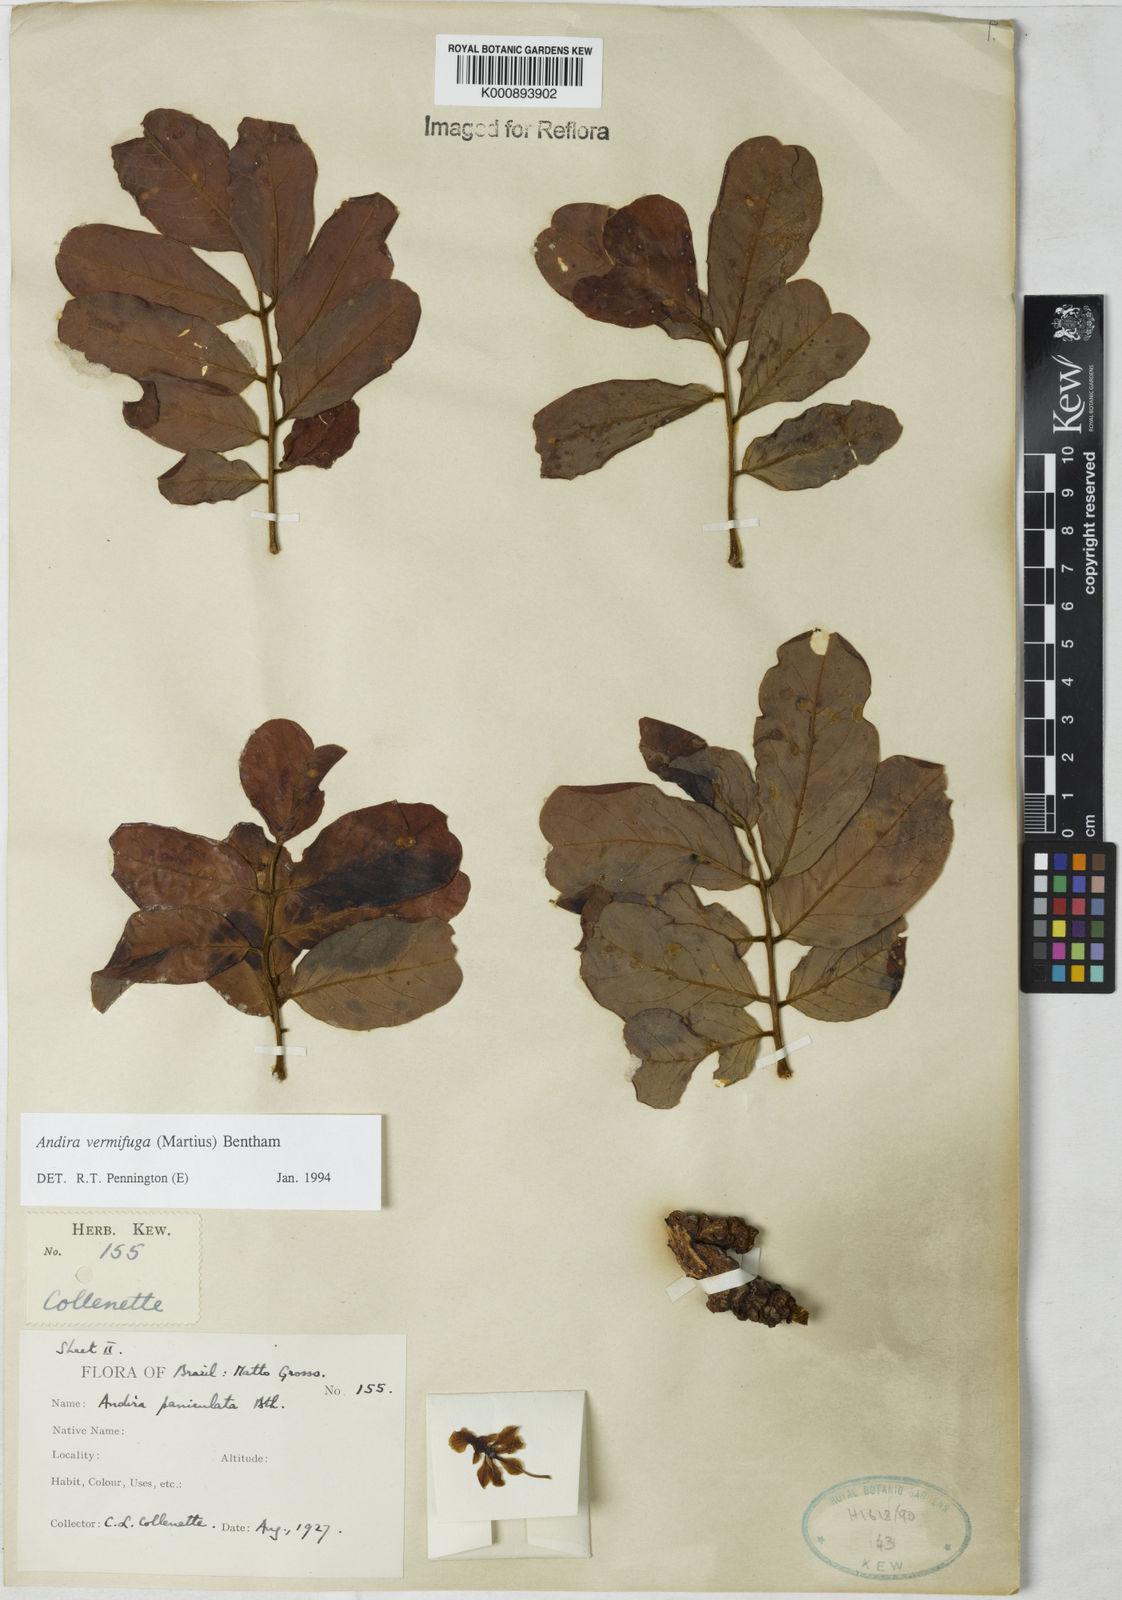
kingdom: Plantae
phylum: Tracheophyta
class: Magnoliopsida
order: Fabales
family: Fabaceae
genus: Andira
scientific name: Andira vermifuga
